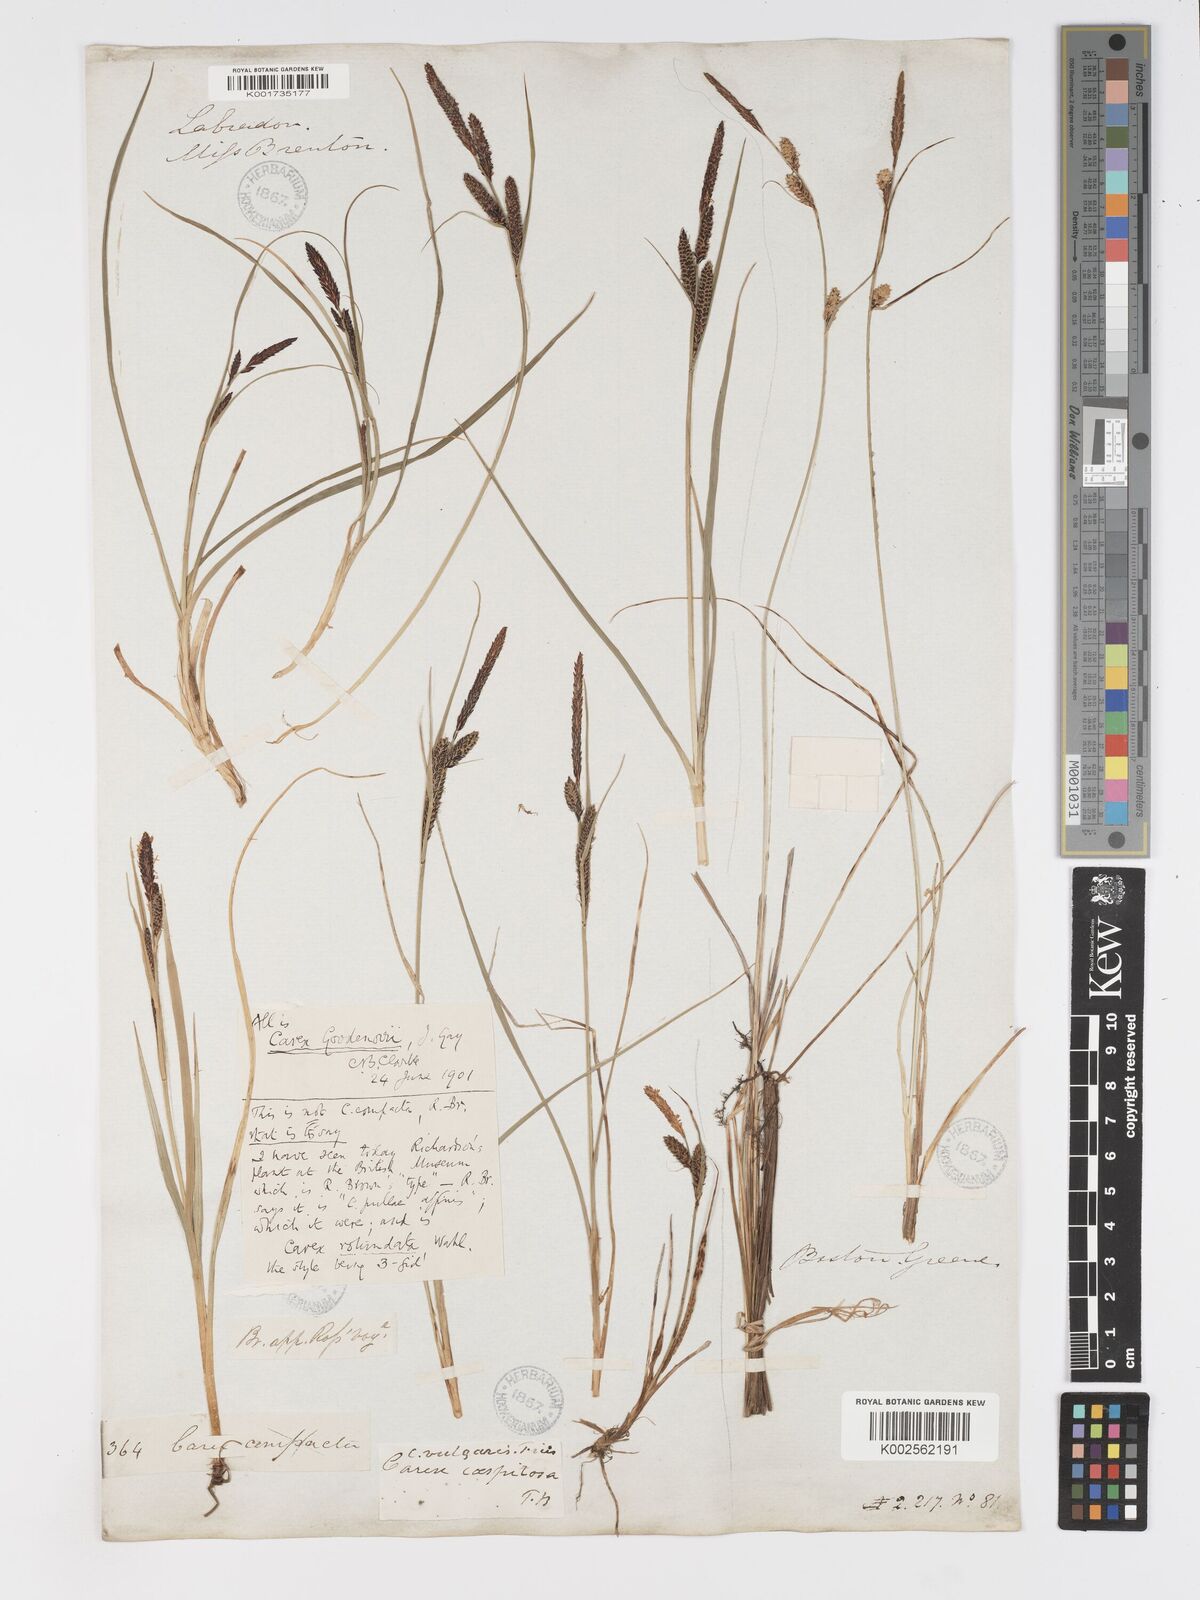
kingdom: Plantae
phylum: Tracheophyta
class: Liliopsida
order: Poales
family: Cyperaceae
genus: Carex
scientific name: Carex nigra
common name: Common sedge
